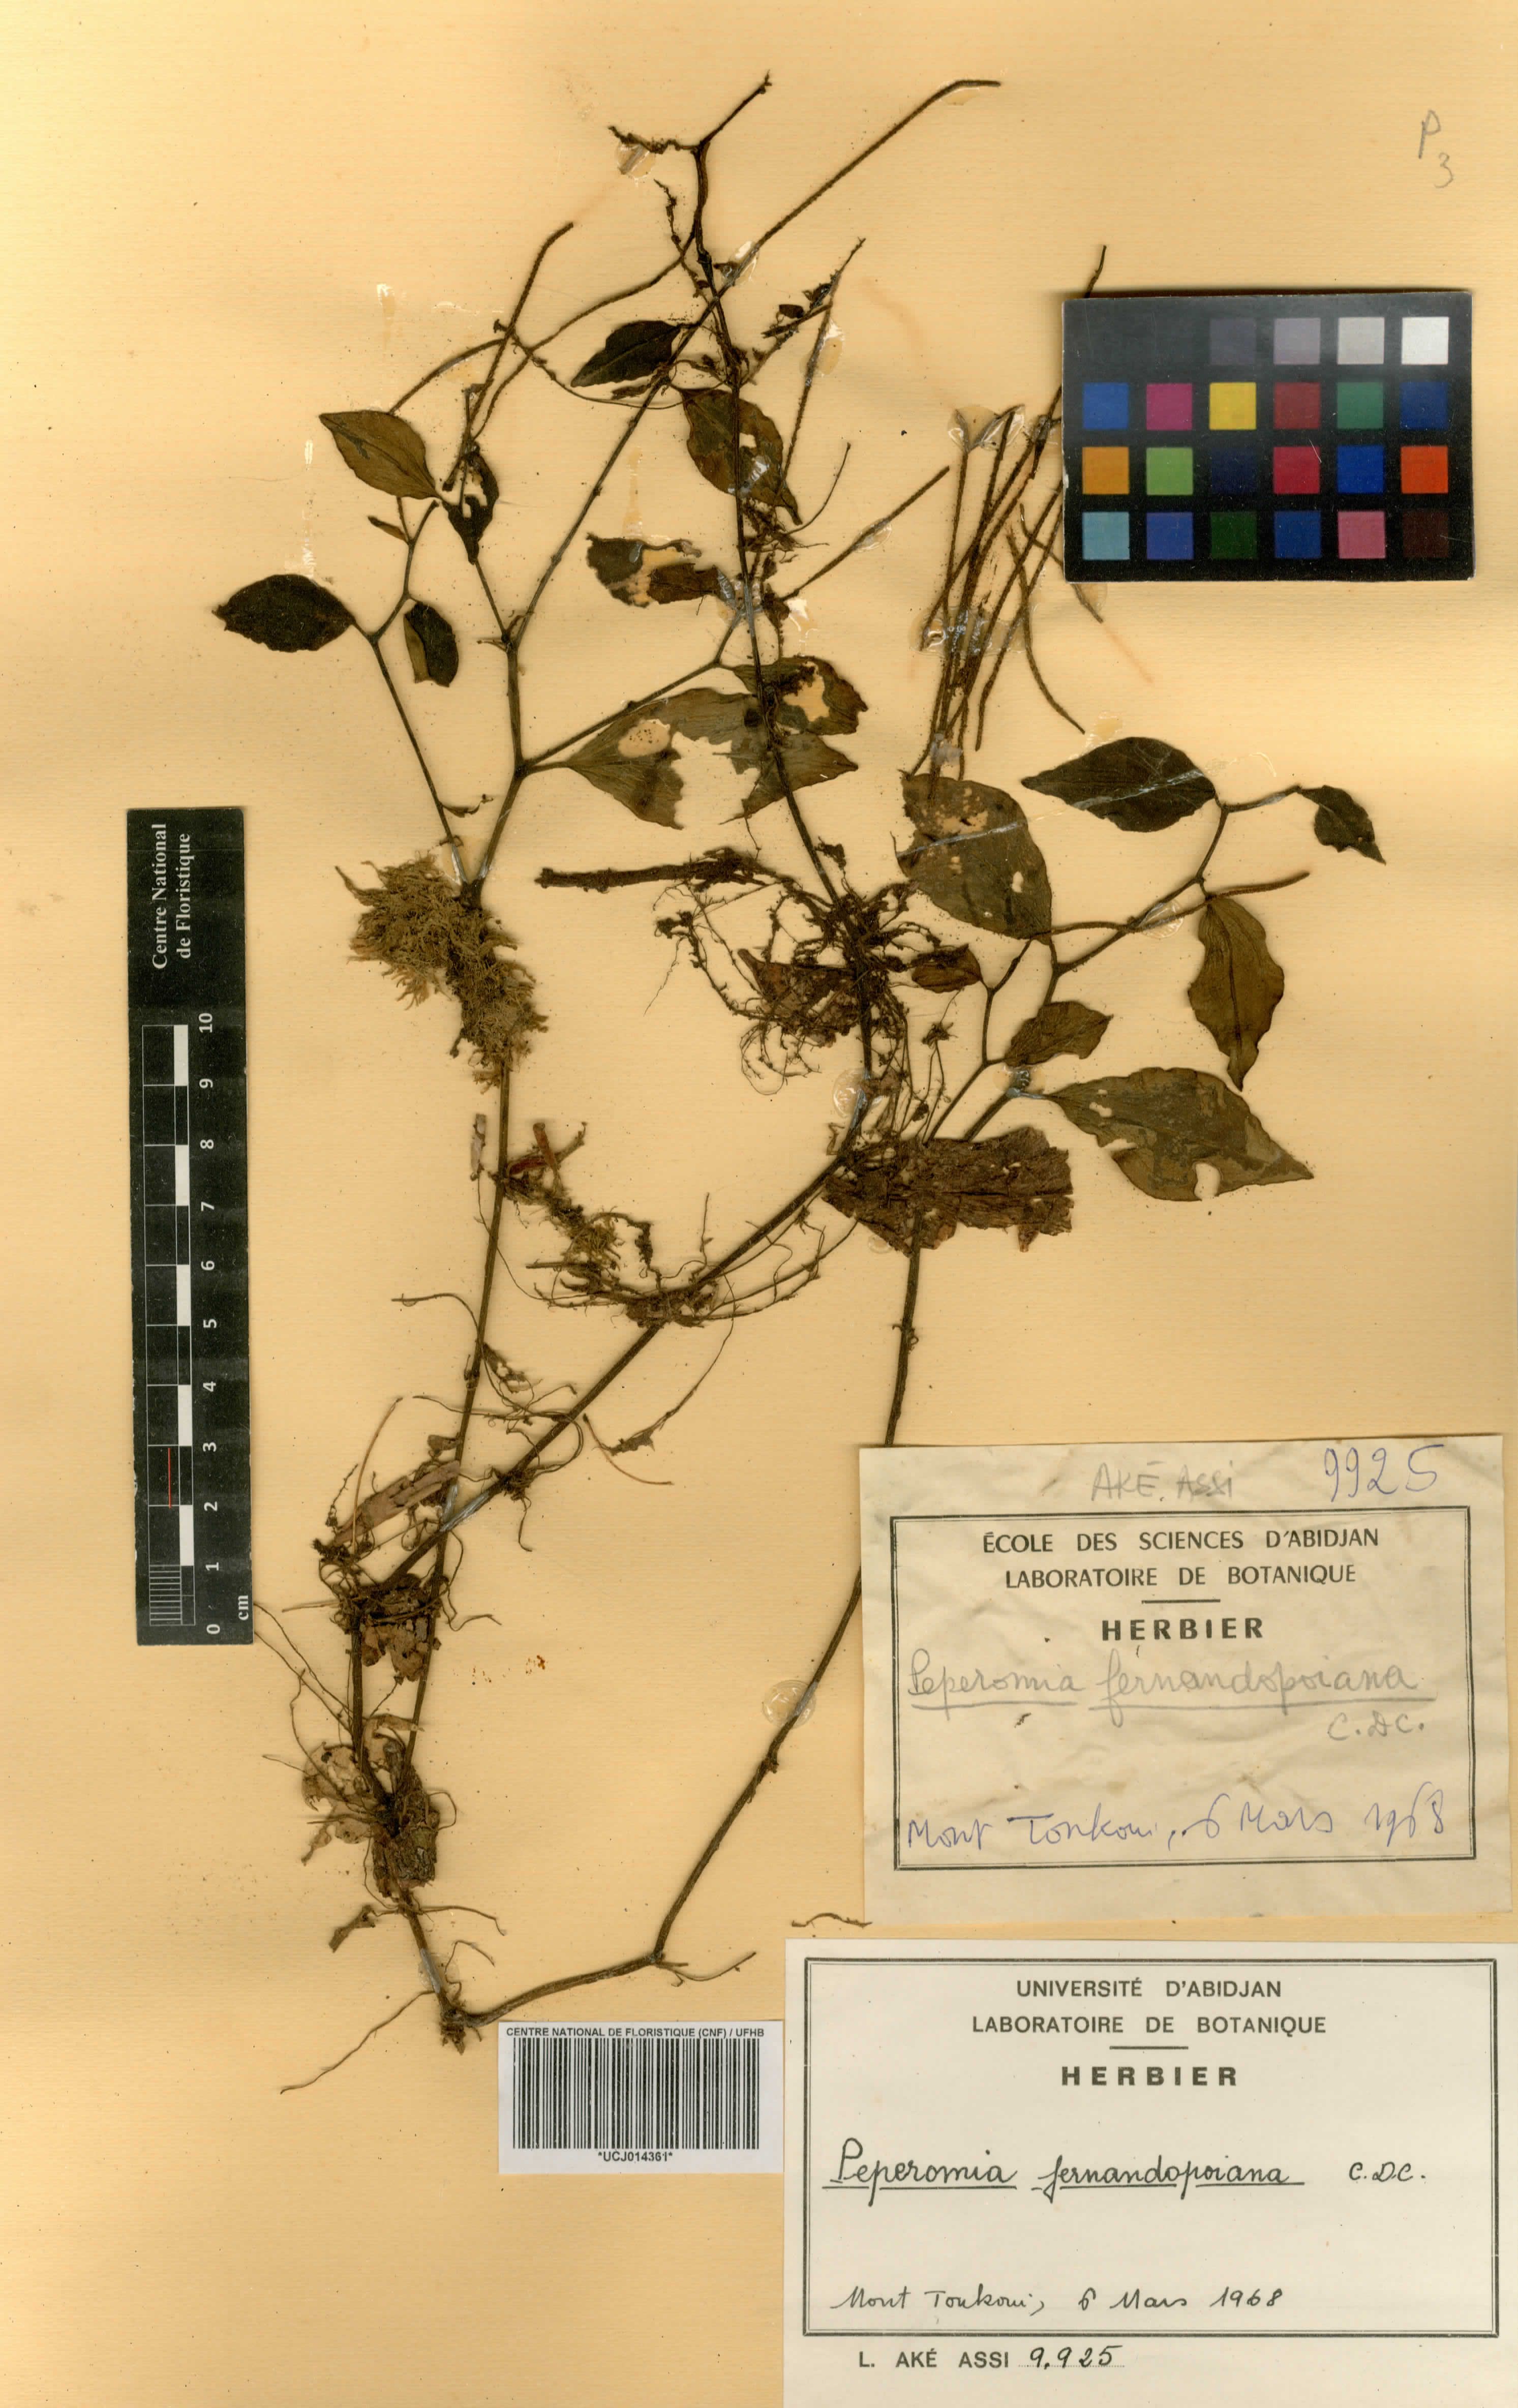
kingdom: Plantae
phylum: Tracheophyta
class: Magnoliopsida
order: Piperales
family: Piperaceae
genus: Peperomia
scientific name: Peperomia pellucida
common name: Man to man
